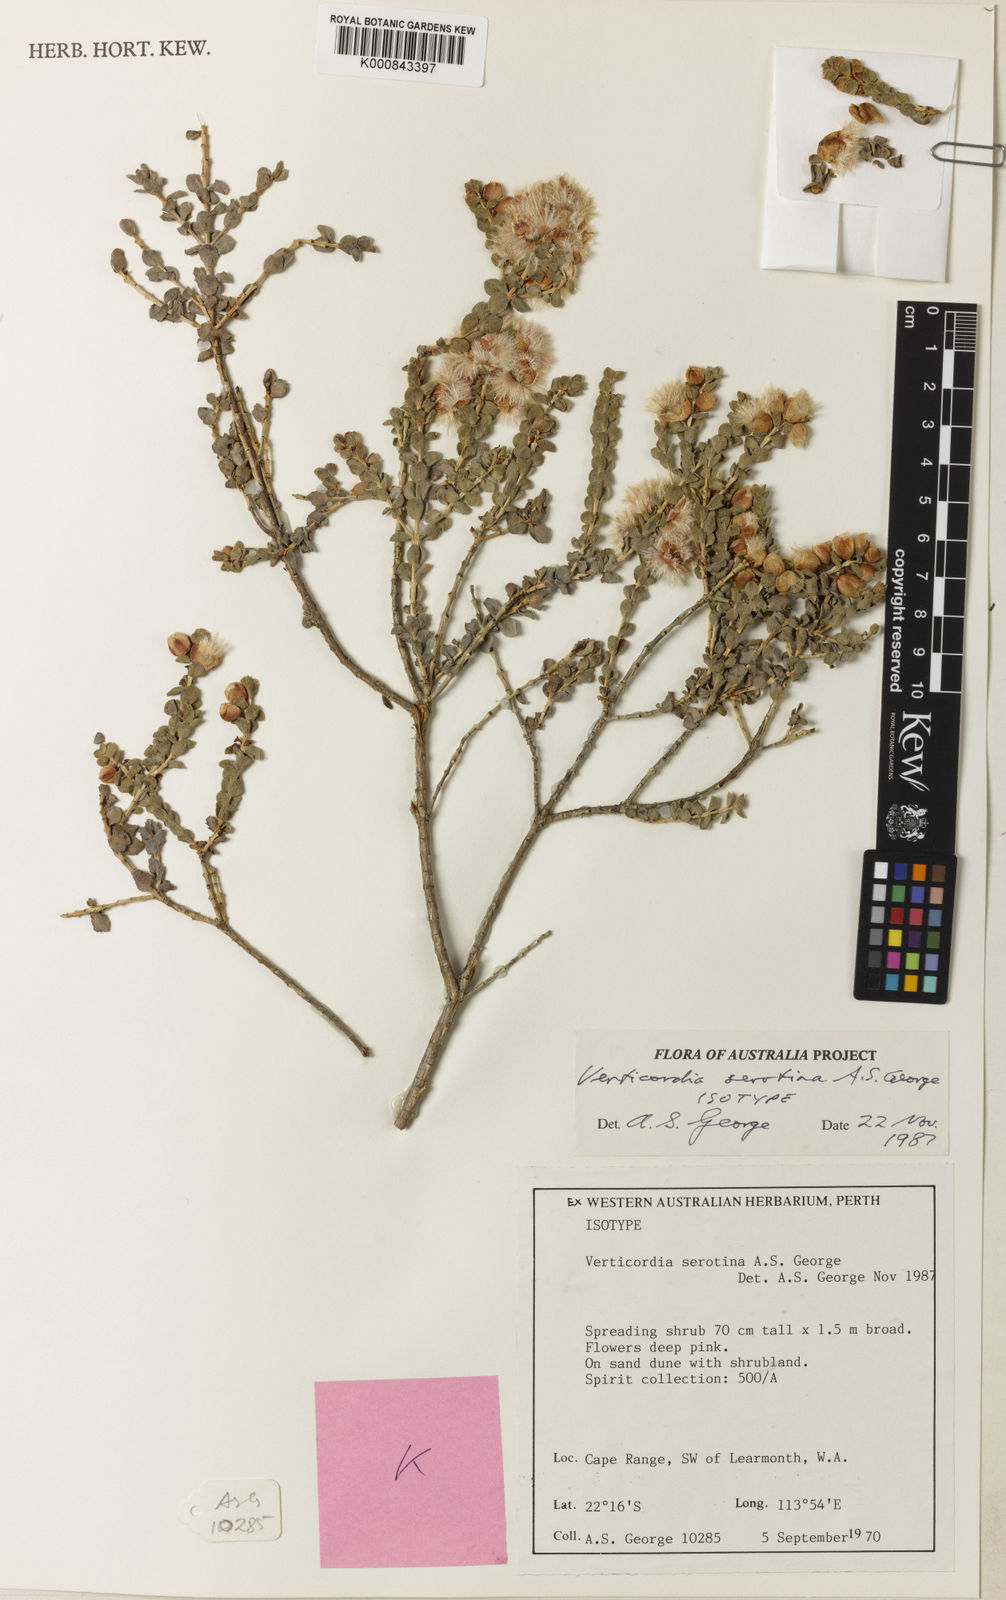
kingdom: Plantae
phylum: Tracheophyta
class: Magnoliopsida
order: Myrtales
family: Myrtaceae
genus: Verticordia
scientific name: Verticordia serotina
